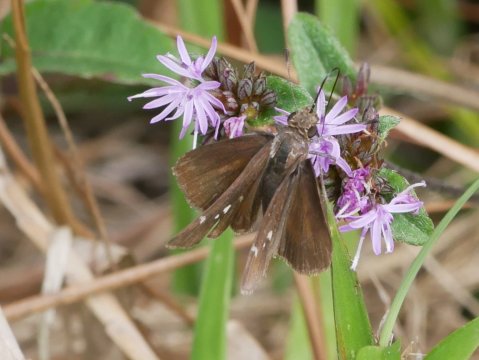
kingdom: Animalia
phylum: Arthropoda
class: Insecta
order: Lepidoptera
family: Hesperiidae
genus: Lerema
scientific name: Lerema accius
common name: Clouded Skipper
